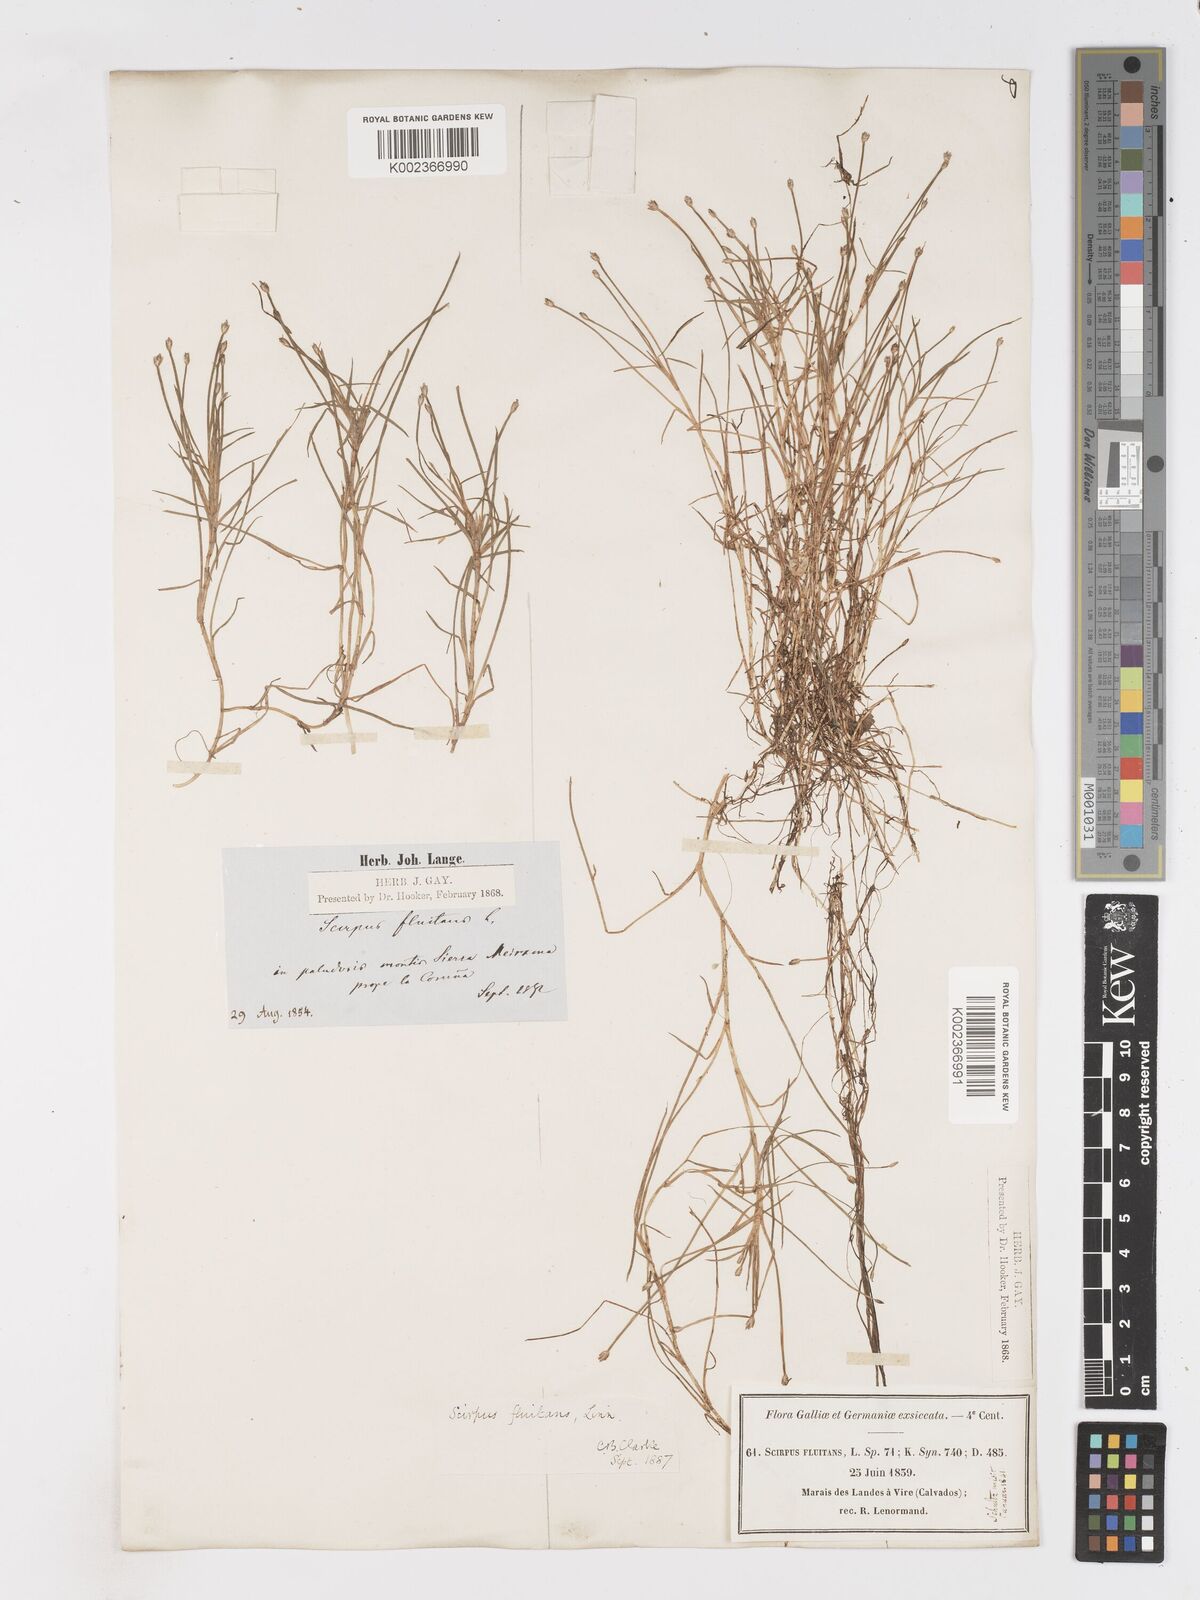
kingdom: Plantae
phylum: Tracheophyta
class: Liliopsida
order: Poales
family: Cyperaceae
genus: Isolepis
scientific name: Isolepis fluitans
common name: Floating club-rush
